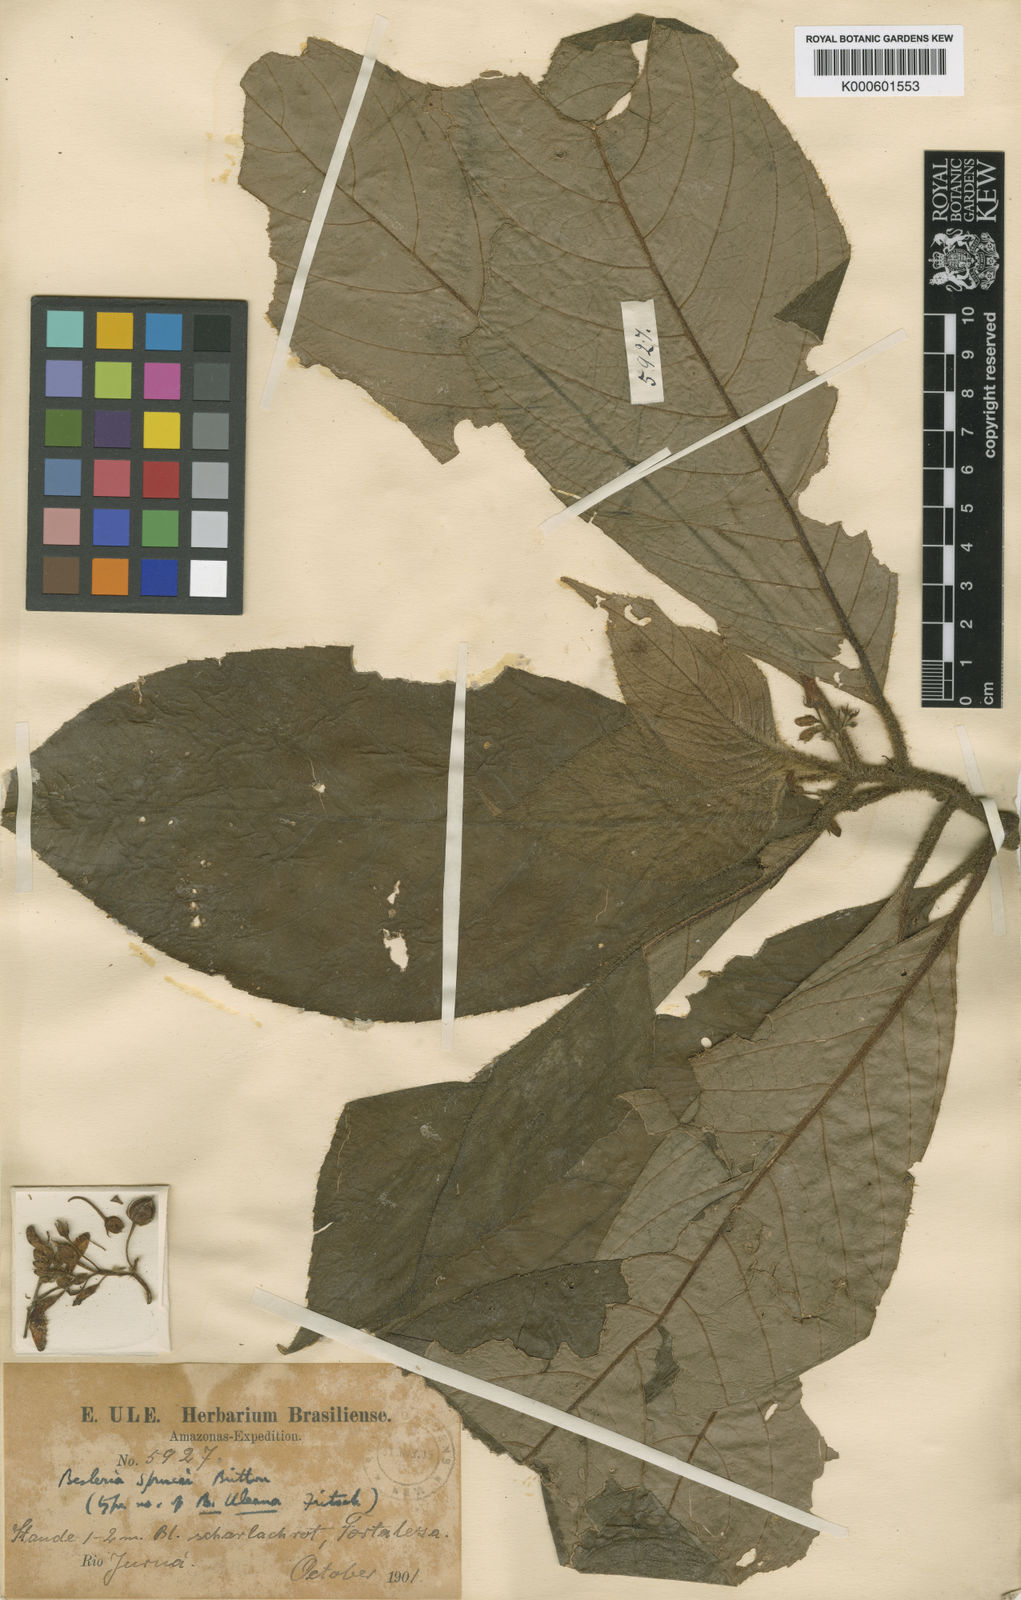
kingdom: Plantae
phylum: Tracheophyta
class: Magnoliopsida
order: Lamiales
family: Gesneriaceae
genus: Besleria
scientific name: Besleria sprucei
